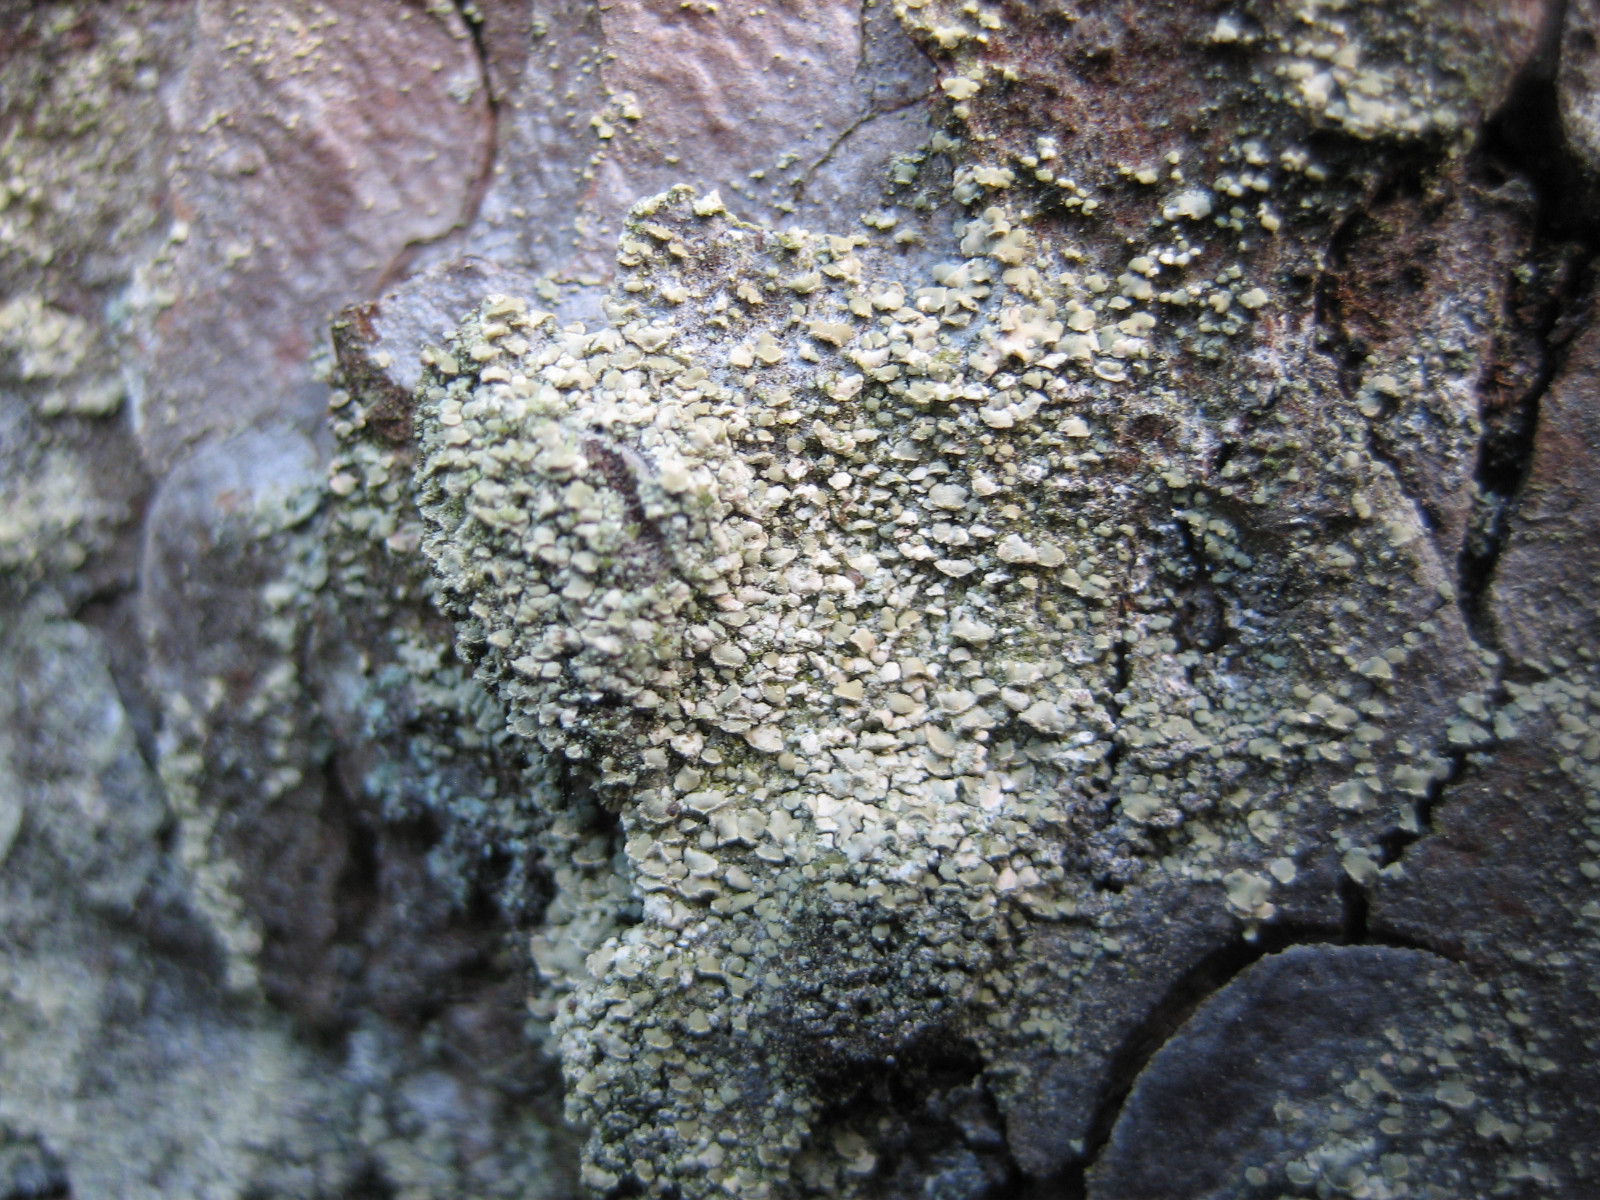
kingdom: Fungi
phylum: Ascomycota
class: Lecanoromycetes
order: Umbilicariales
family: Ophioparmaceae
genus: Hypocenomyce
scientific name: Hypocenomyce scalaris
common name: småskællet muslinglav
